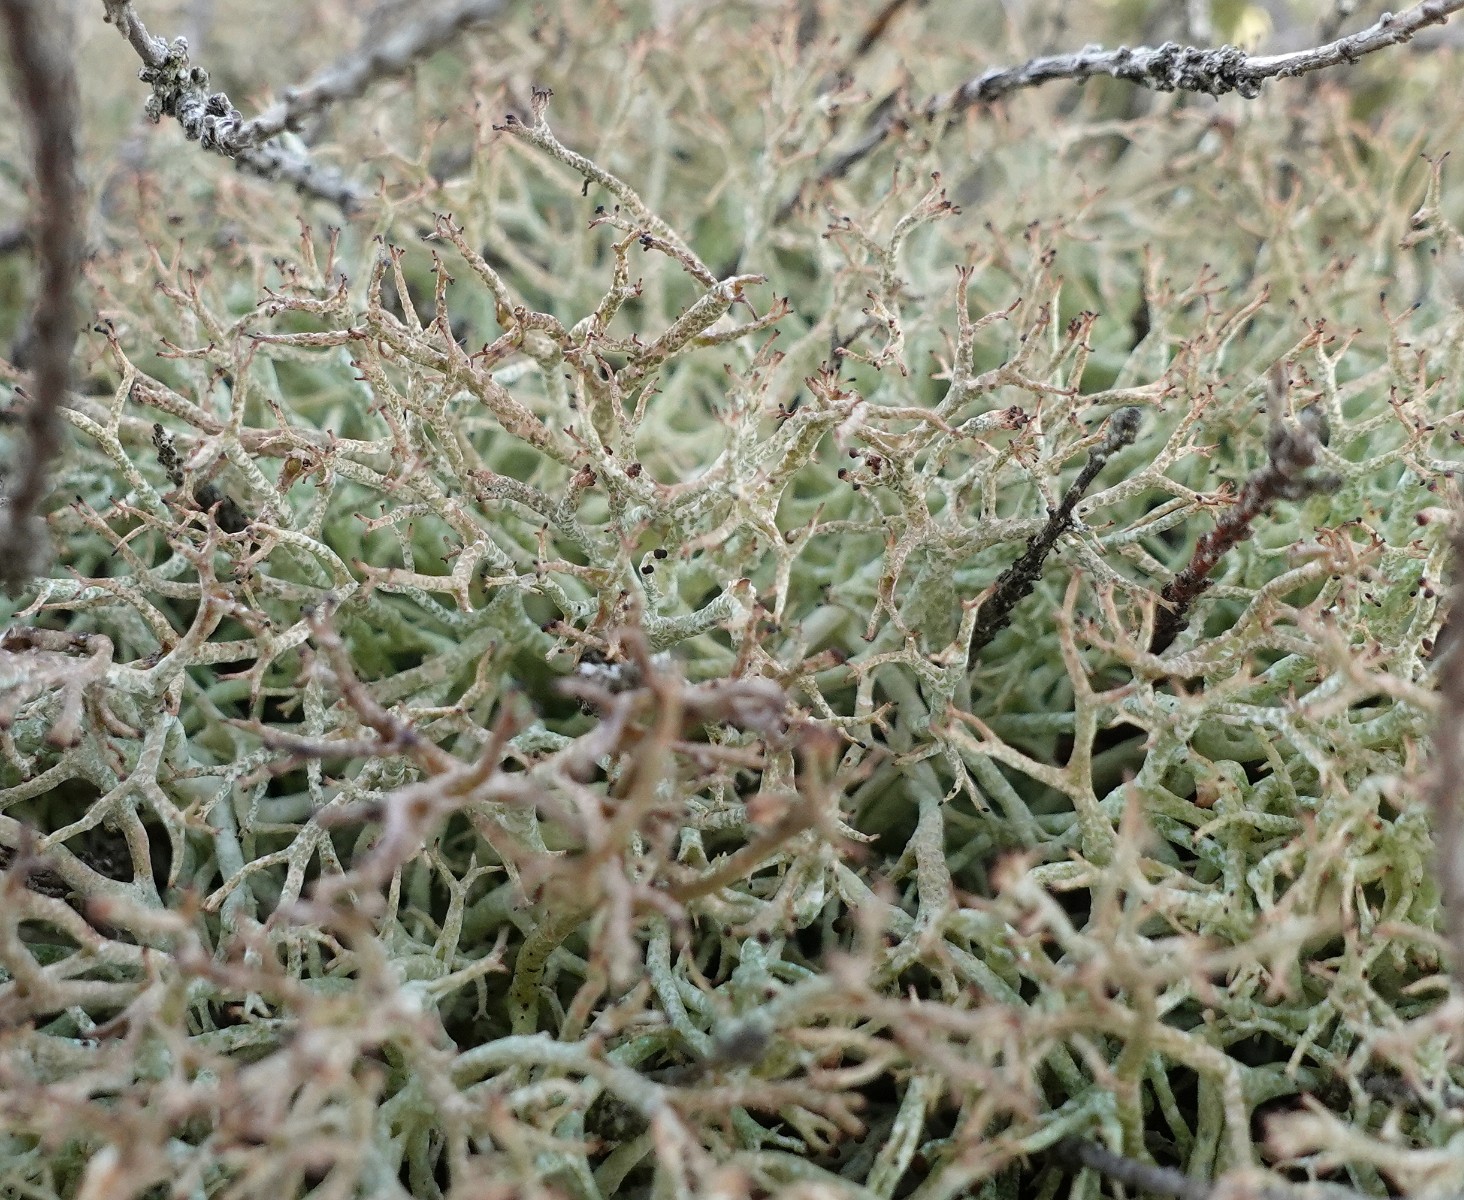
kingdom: Fungi
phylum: Ascomycota
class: Lecanoromycetes
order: Lecanorales
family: Cladoniaceae
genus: Cladonia
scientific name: Cladonia rangiformis
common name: spættet bægerlav
